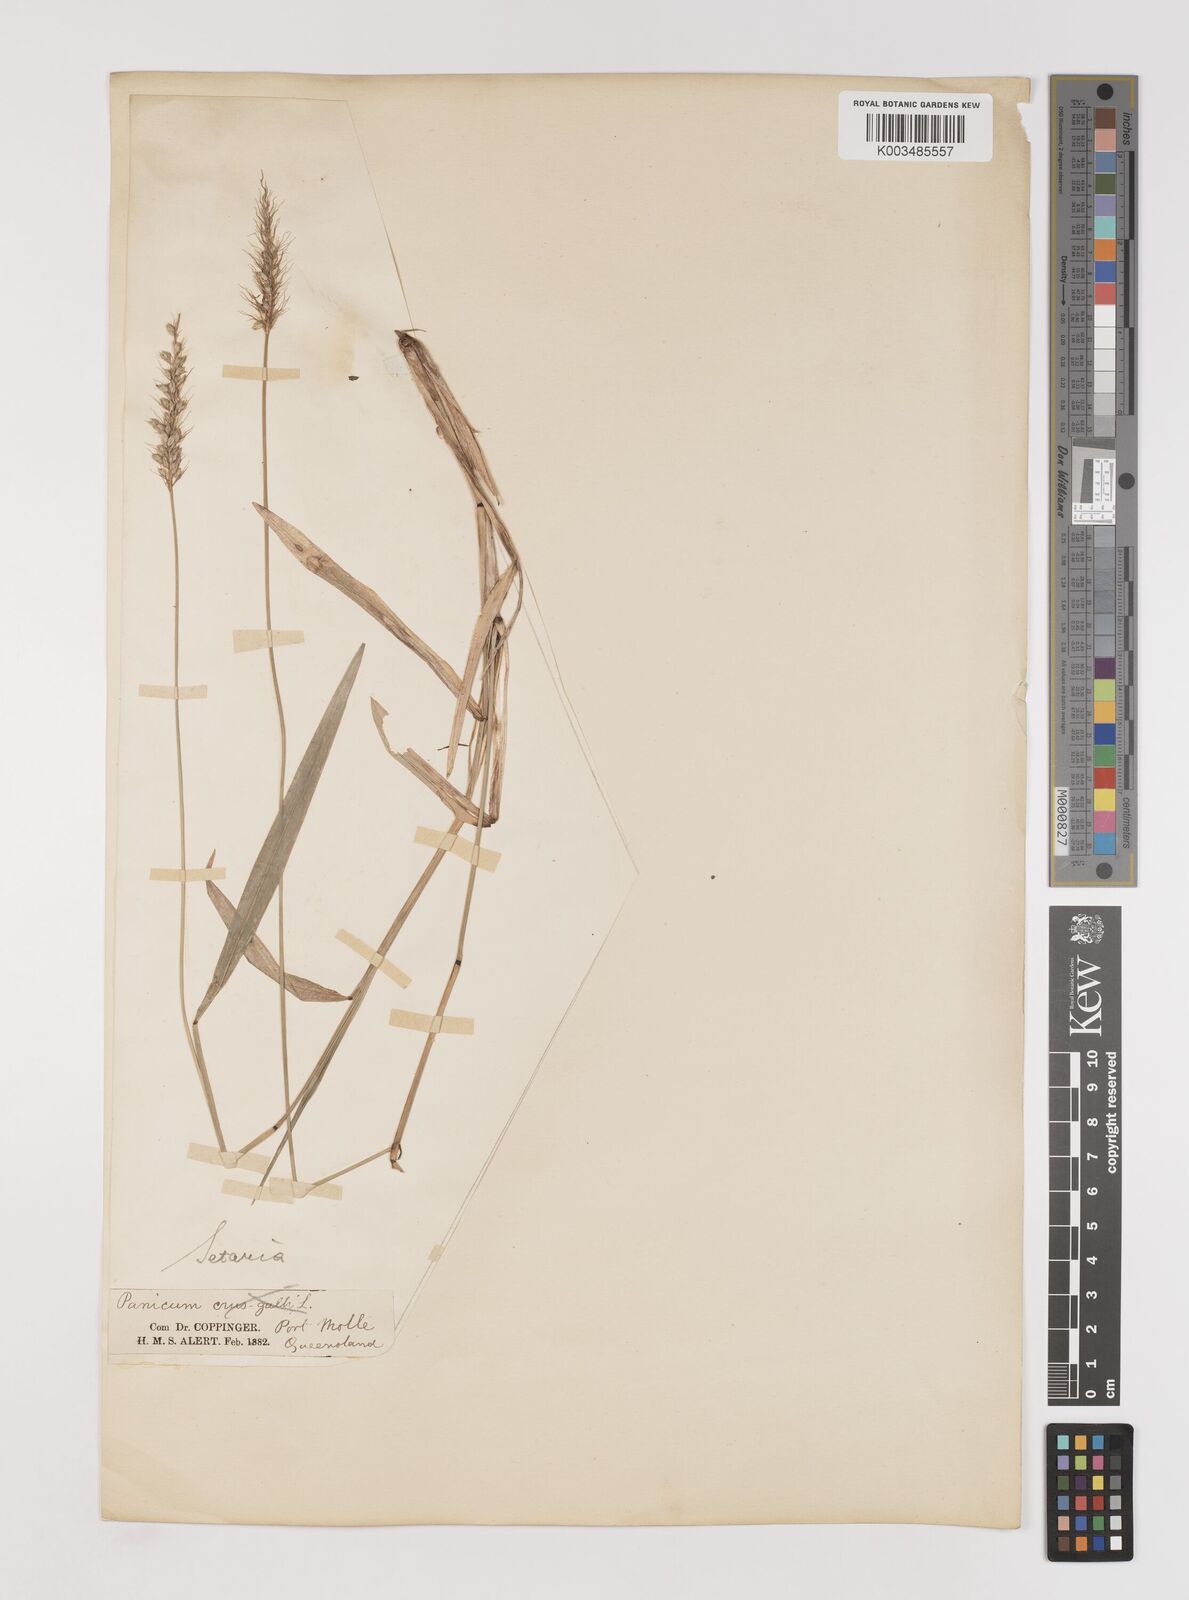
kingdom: Plantae
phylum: Tracheophyta
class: Liliopsida
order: Poales
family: Poaceae
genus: Setaria
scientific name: Setaria
